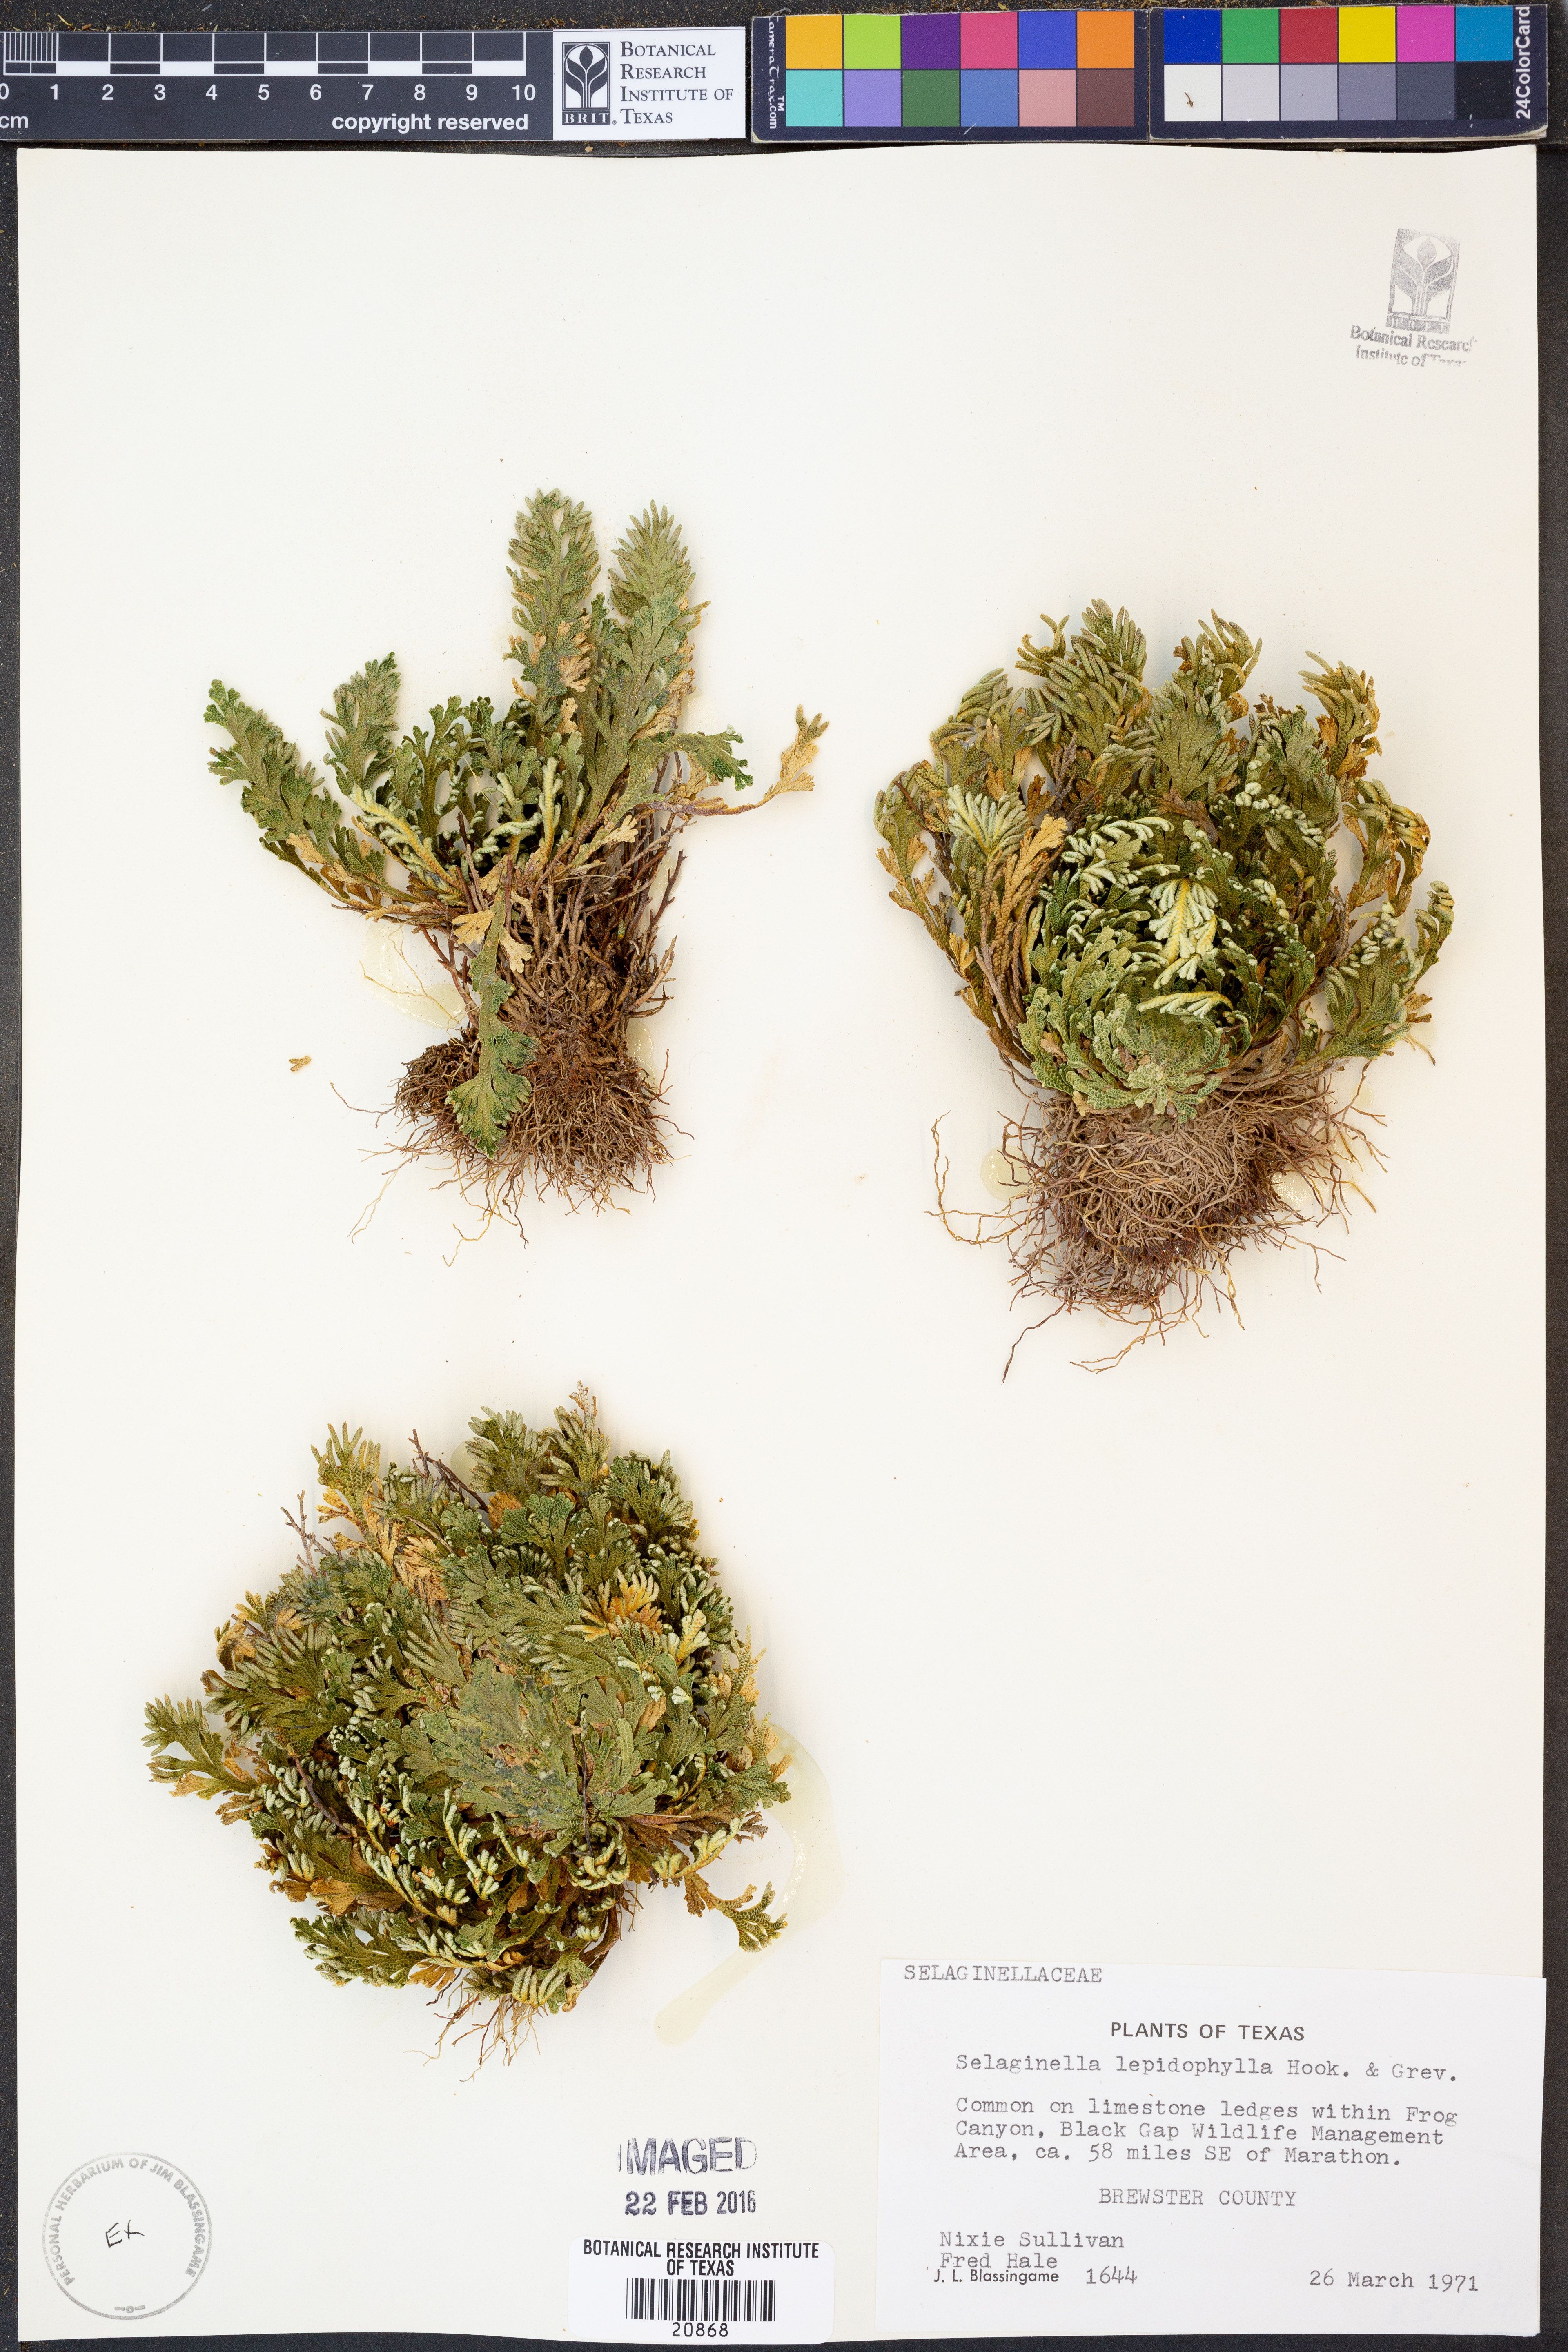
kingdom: Plantae
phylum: Tracheophyta
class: Lycopodiopsida
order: Selaginellales
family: Selaginellaceae
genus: Selaginella
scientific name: Selaginella lepidophylla
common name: Rose-of-jericho
